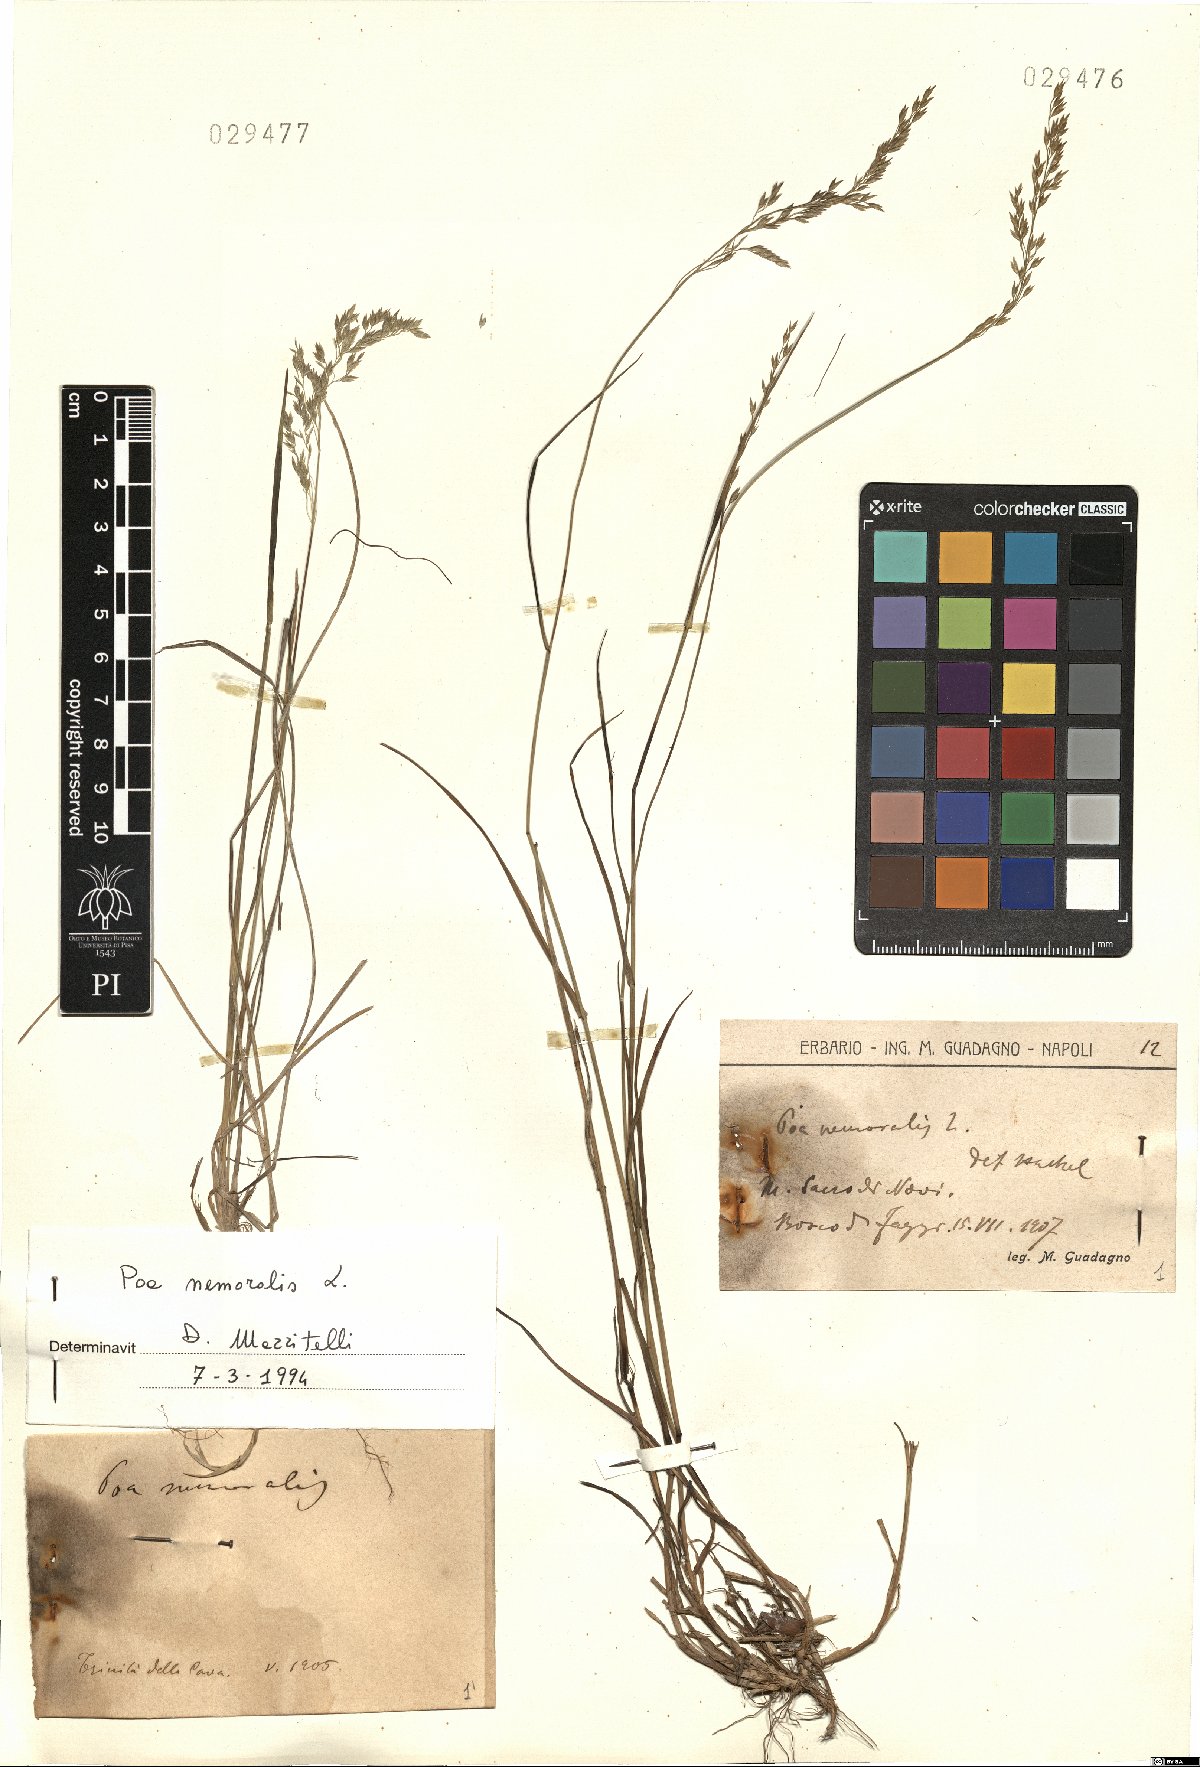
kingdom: Plantae
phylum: Tracheophyta
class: Liliopsida
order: Poales
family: Poaceae
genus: Poa
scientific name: Poa nemoralis
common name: Wood bluegrass
